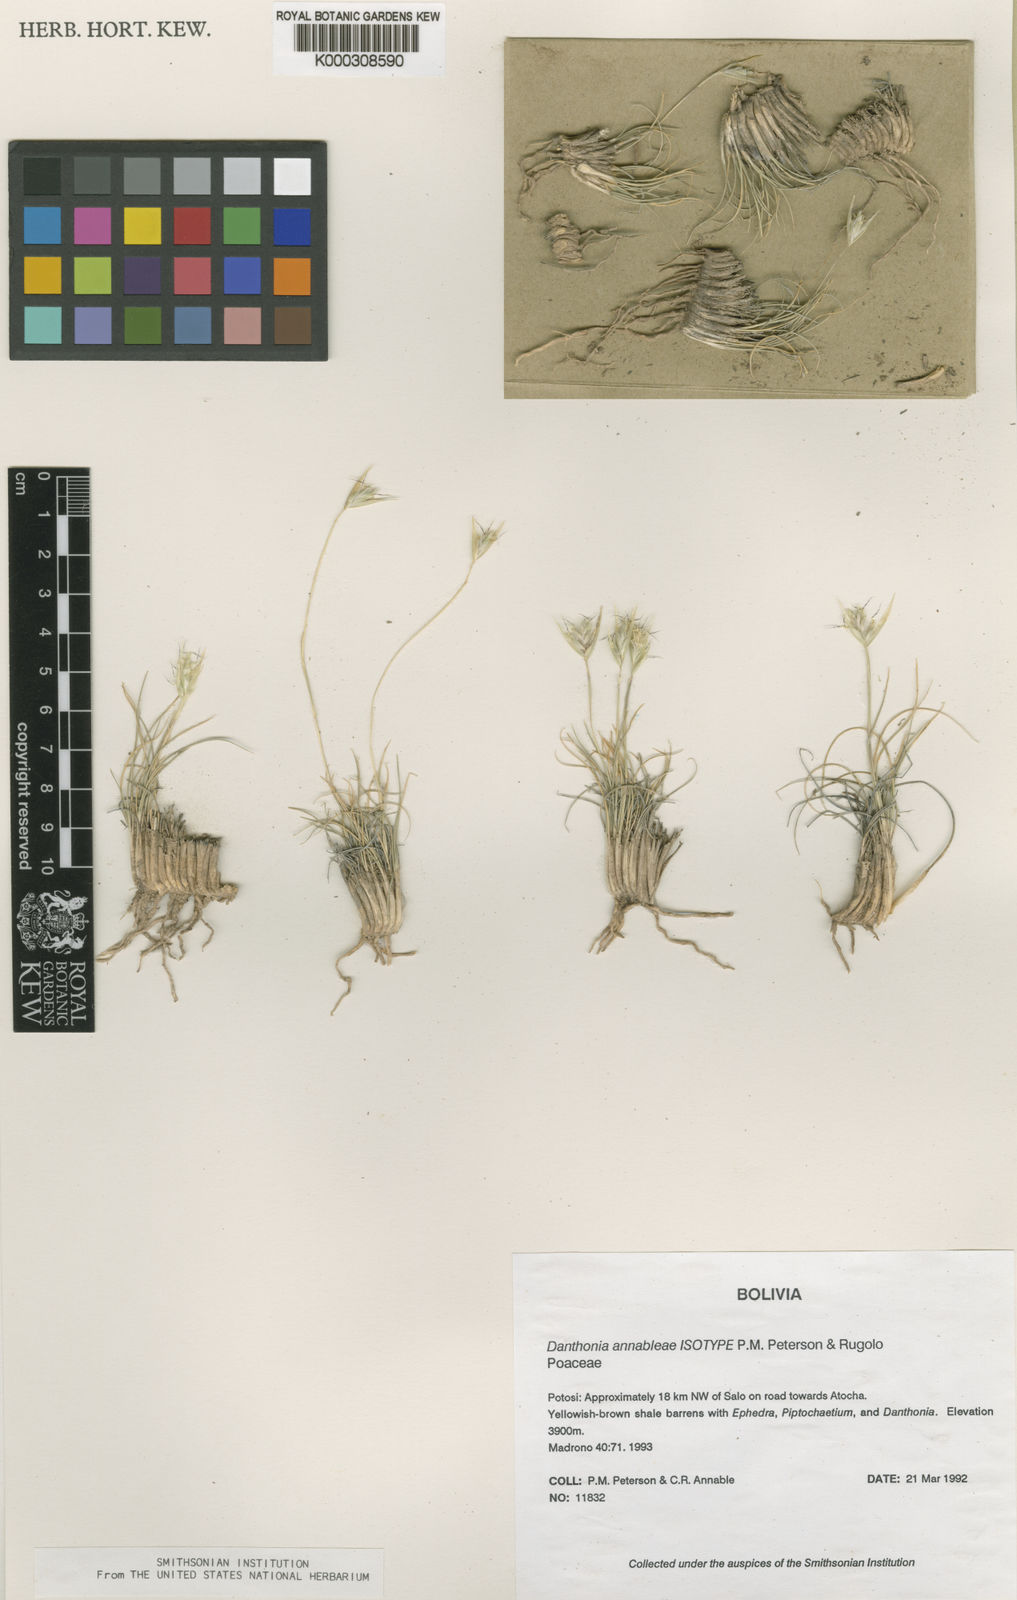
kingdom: Plantae
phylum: Tracheophyta
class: Liliopsida
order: Poales
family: Poaceae
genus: Danthonia
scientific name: Danthonia
